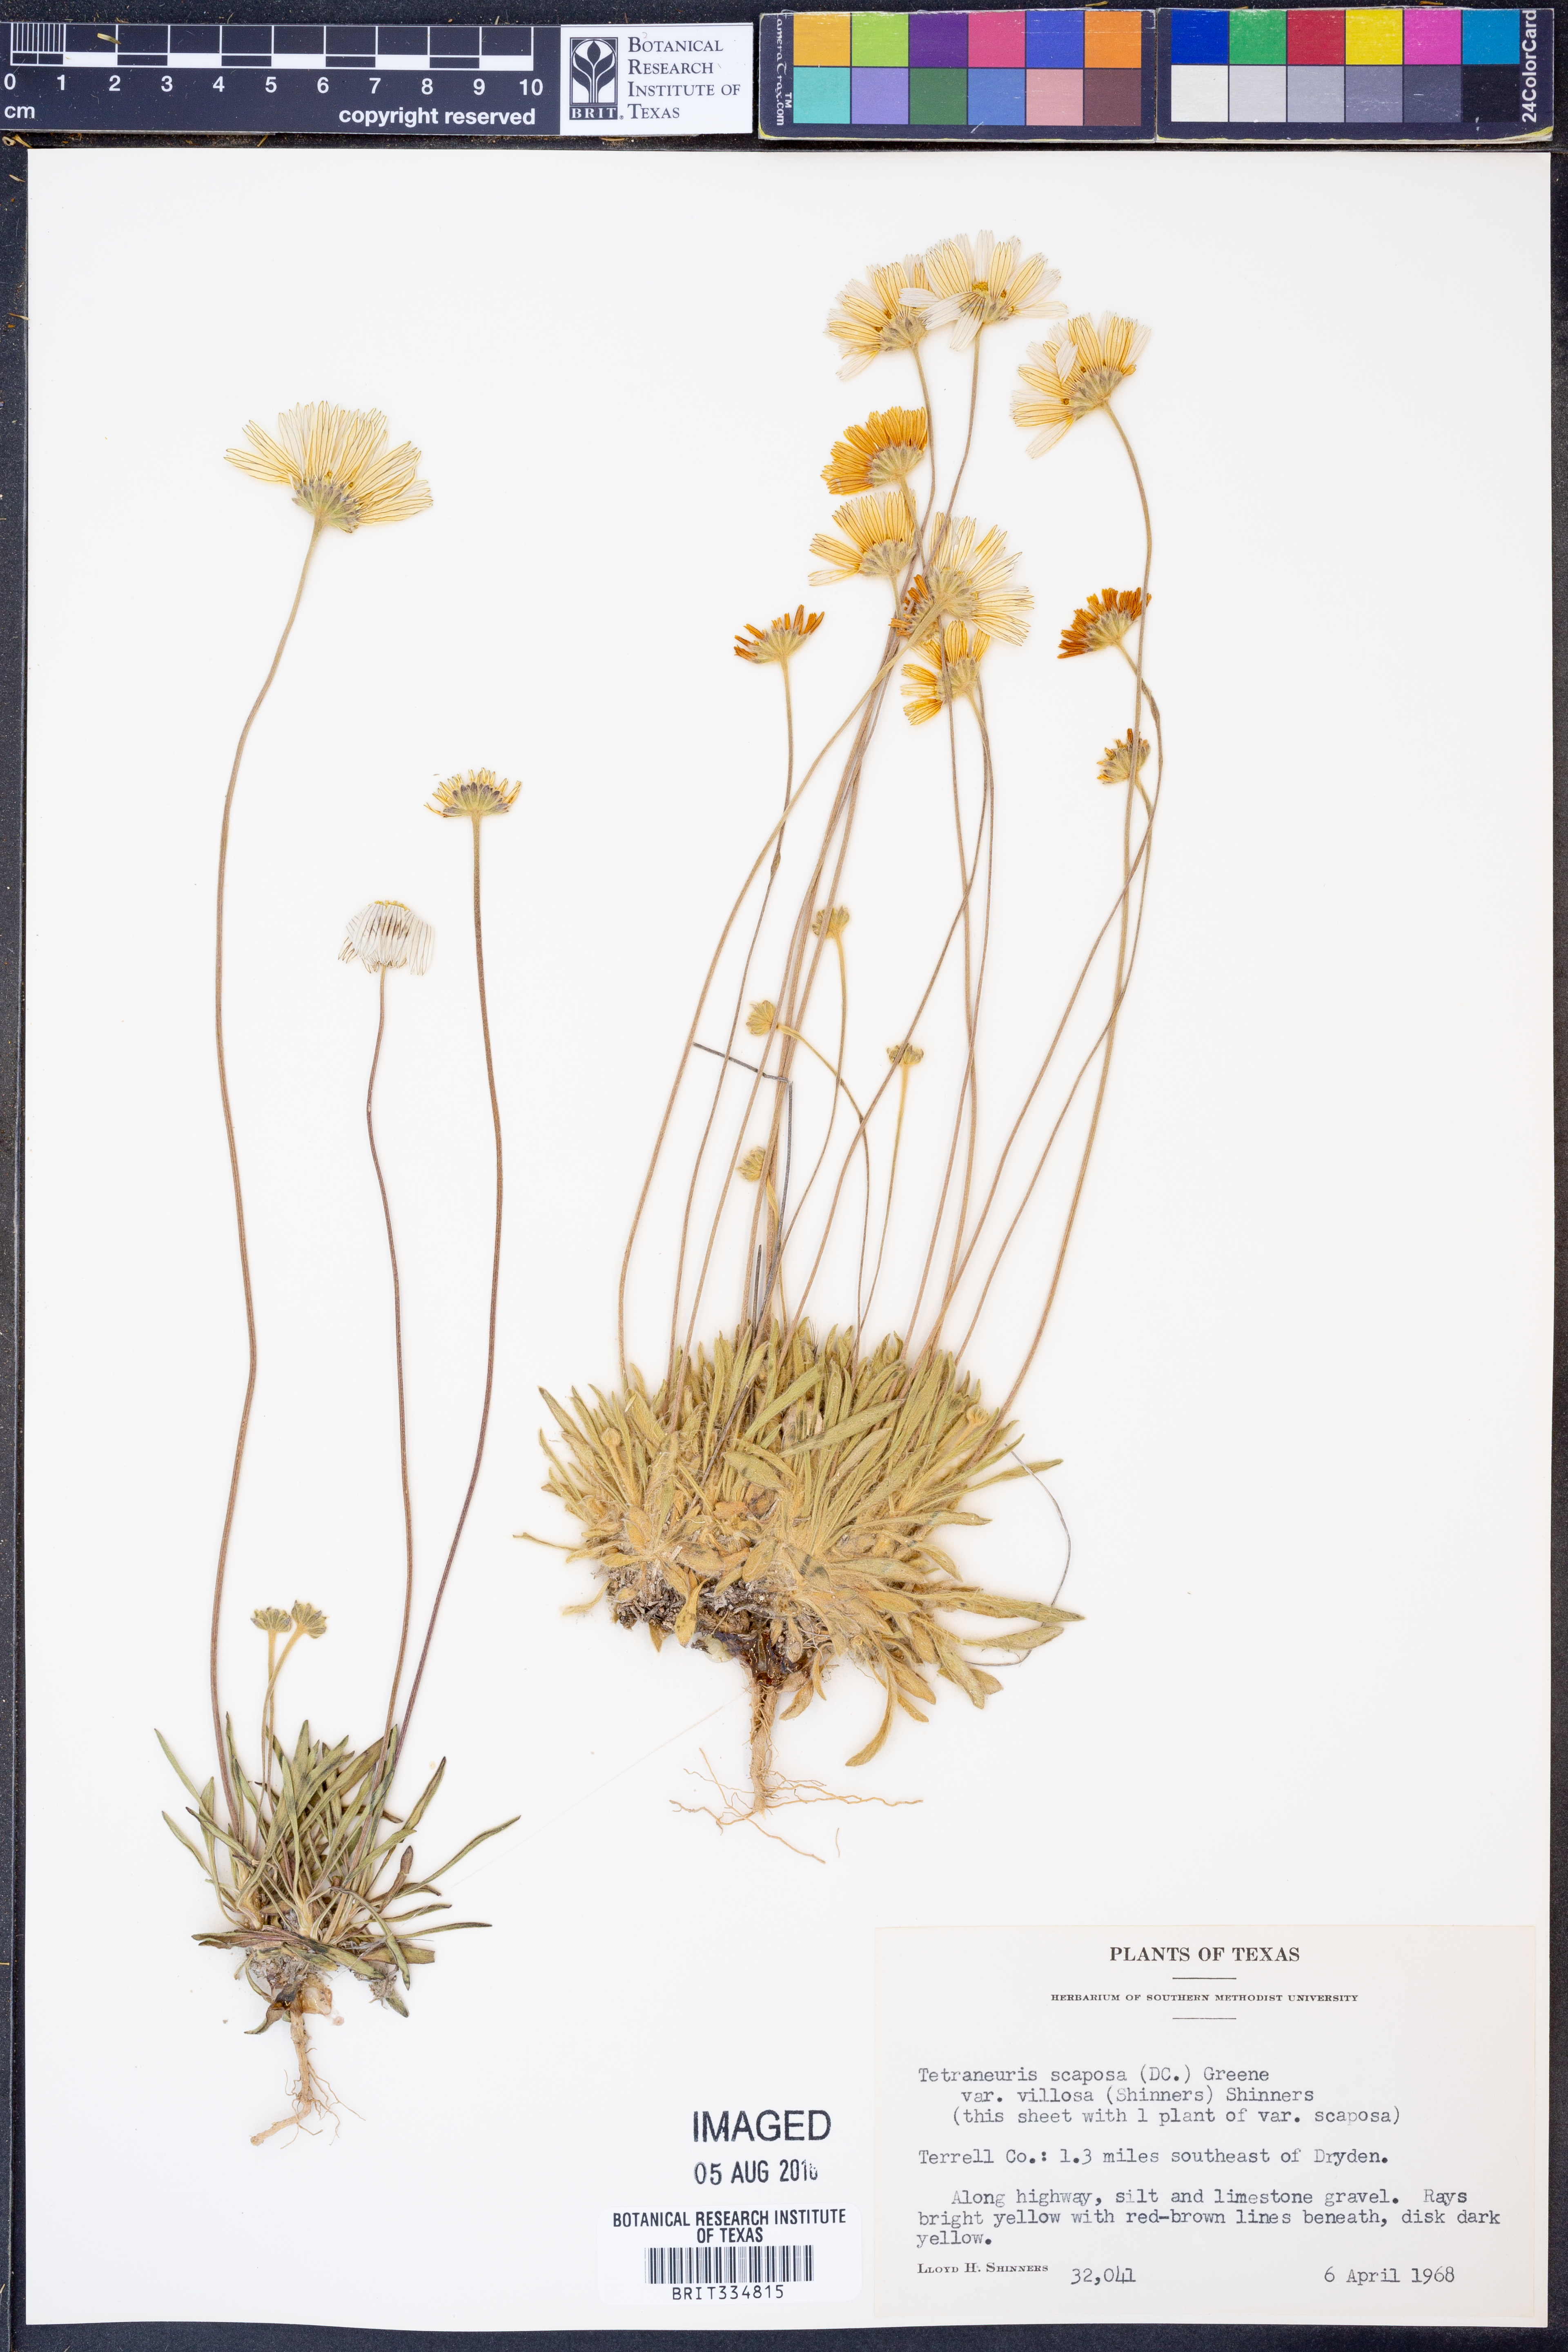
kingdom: Plantae
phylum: Tracheophyta
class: Magnoliopsida
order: Asterales
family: Asteraceae
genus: Tetraneuris
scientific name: Tetraneuris scaposa
